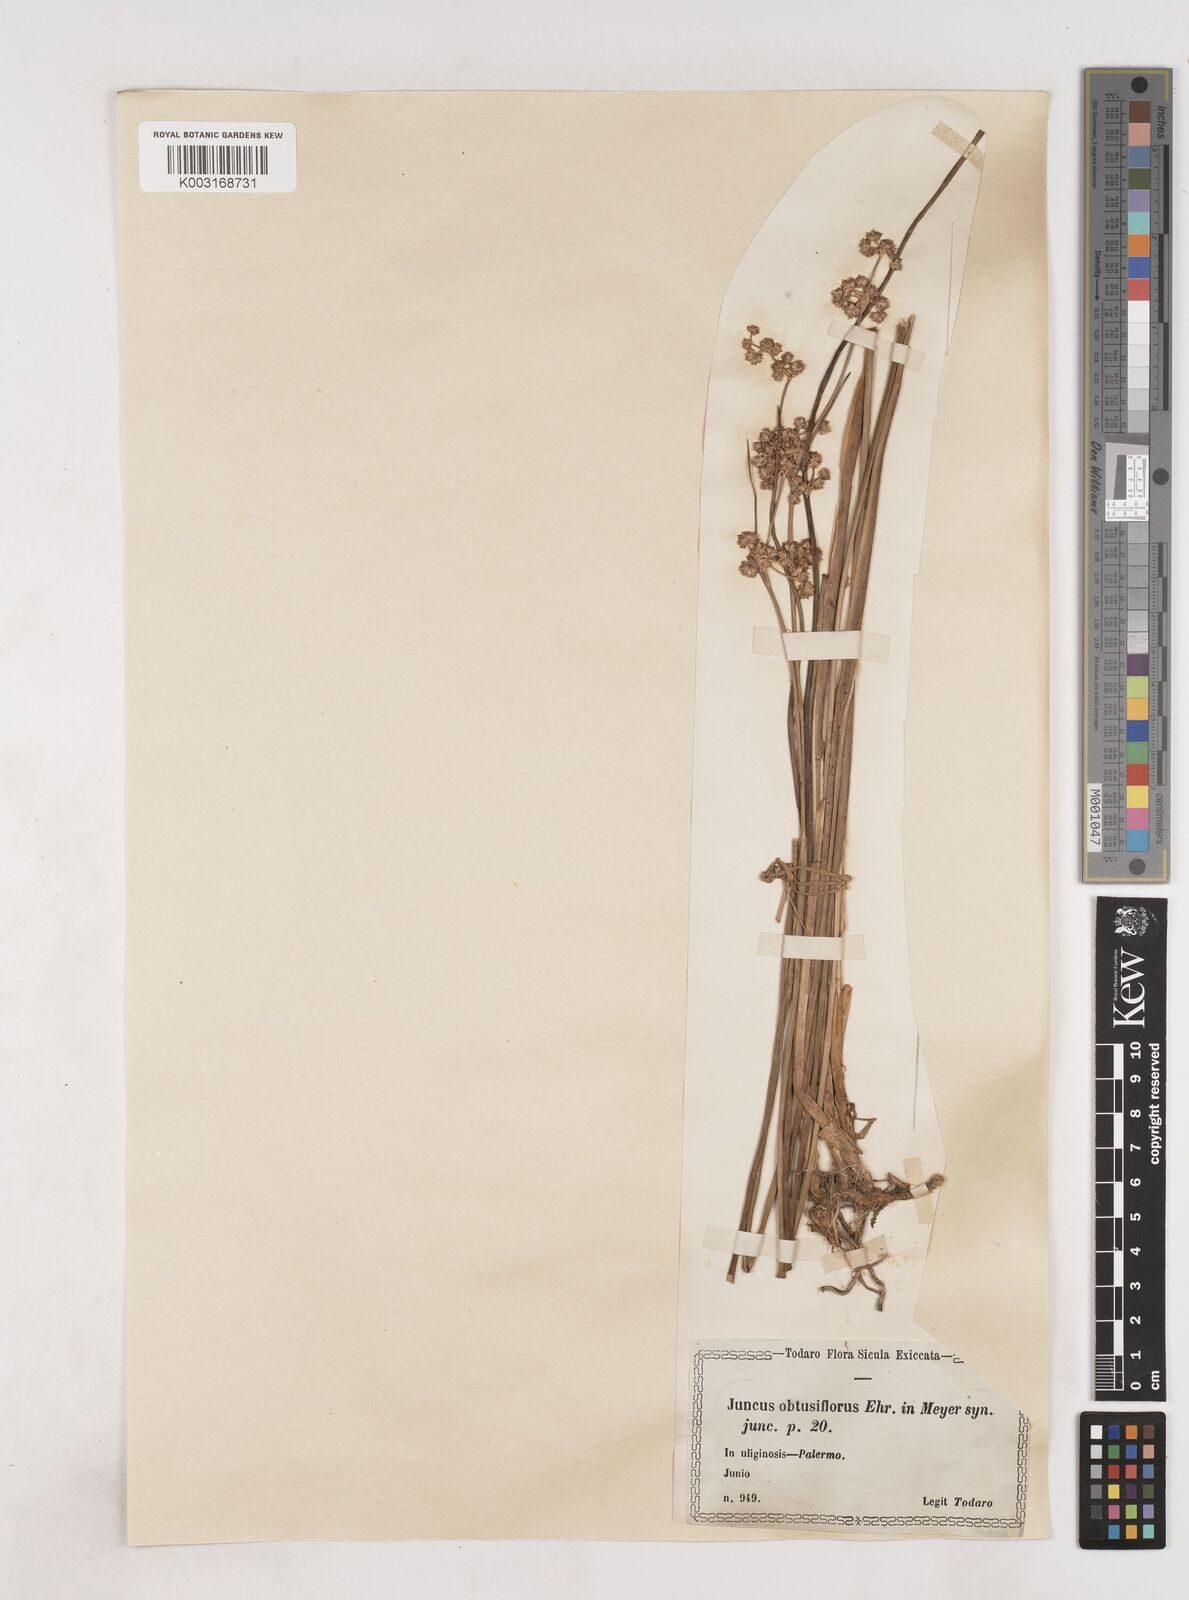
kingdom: Plantae
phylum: Tracheophyta
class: Liliopsida
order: Poales
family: Juncaceae
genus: Juncus
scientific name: Juncus subnodulosus
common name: Blunt-flowered rush
